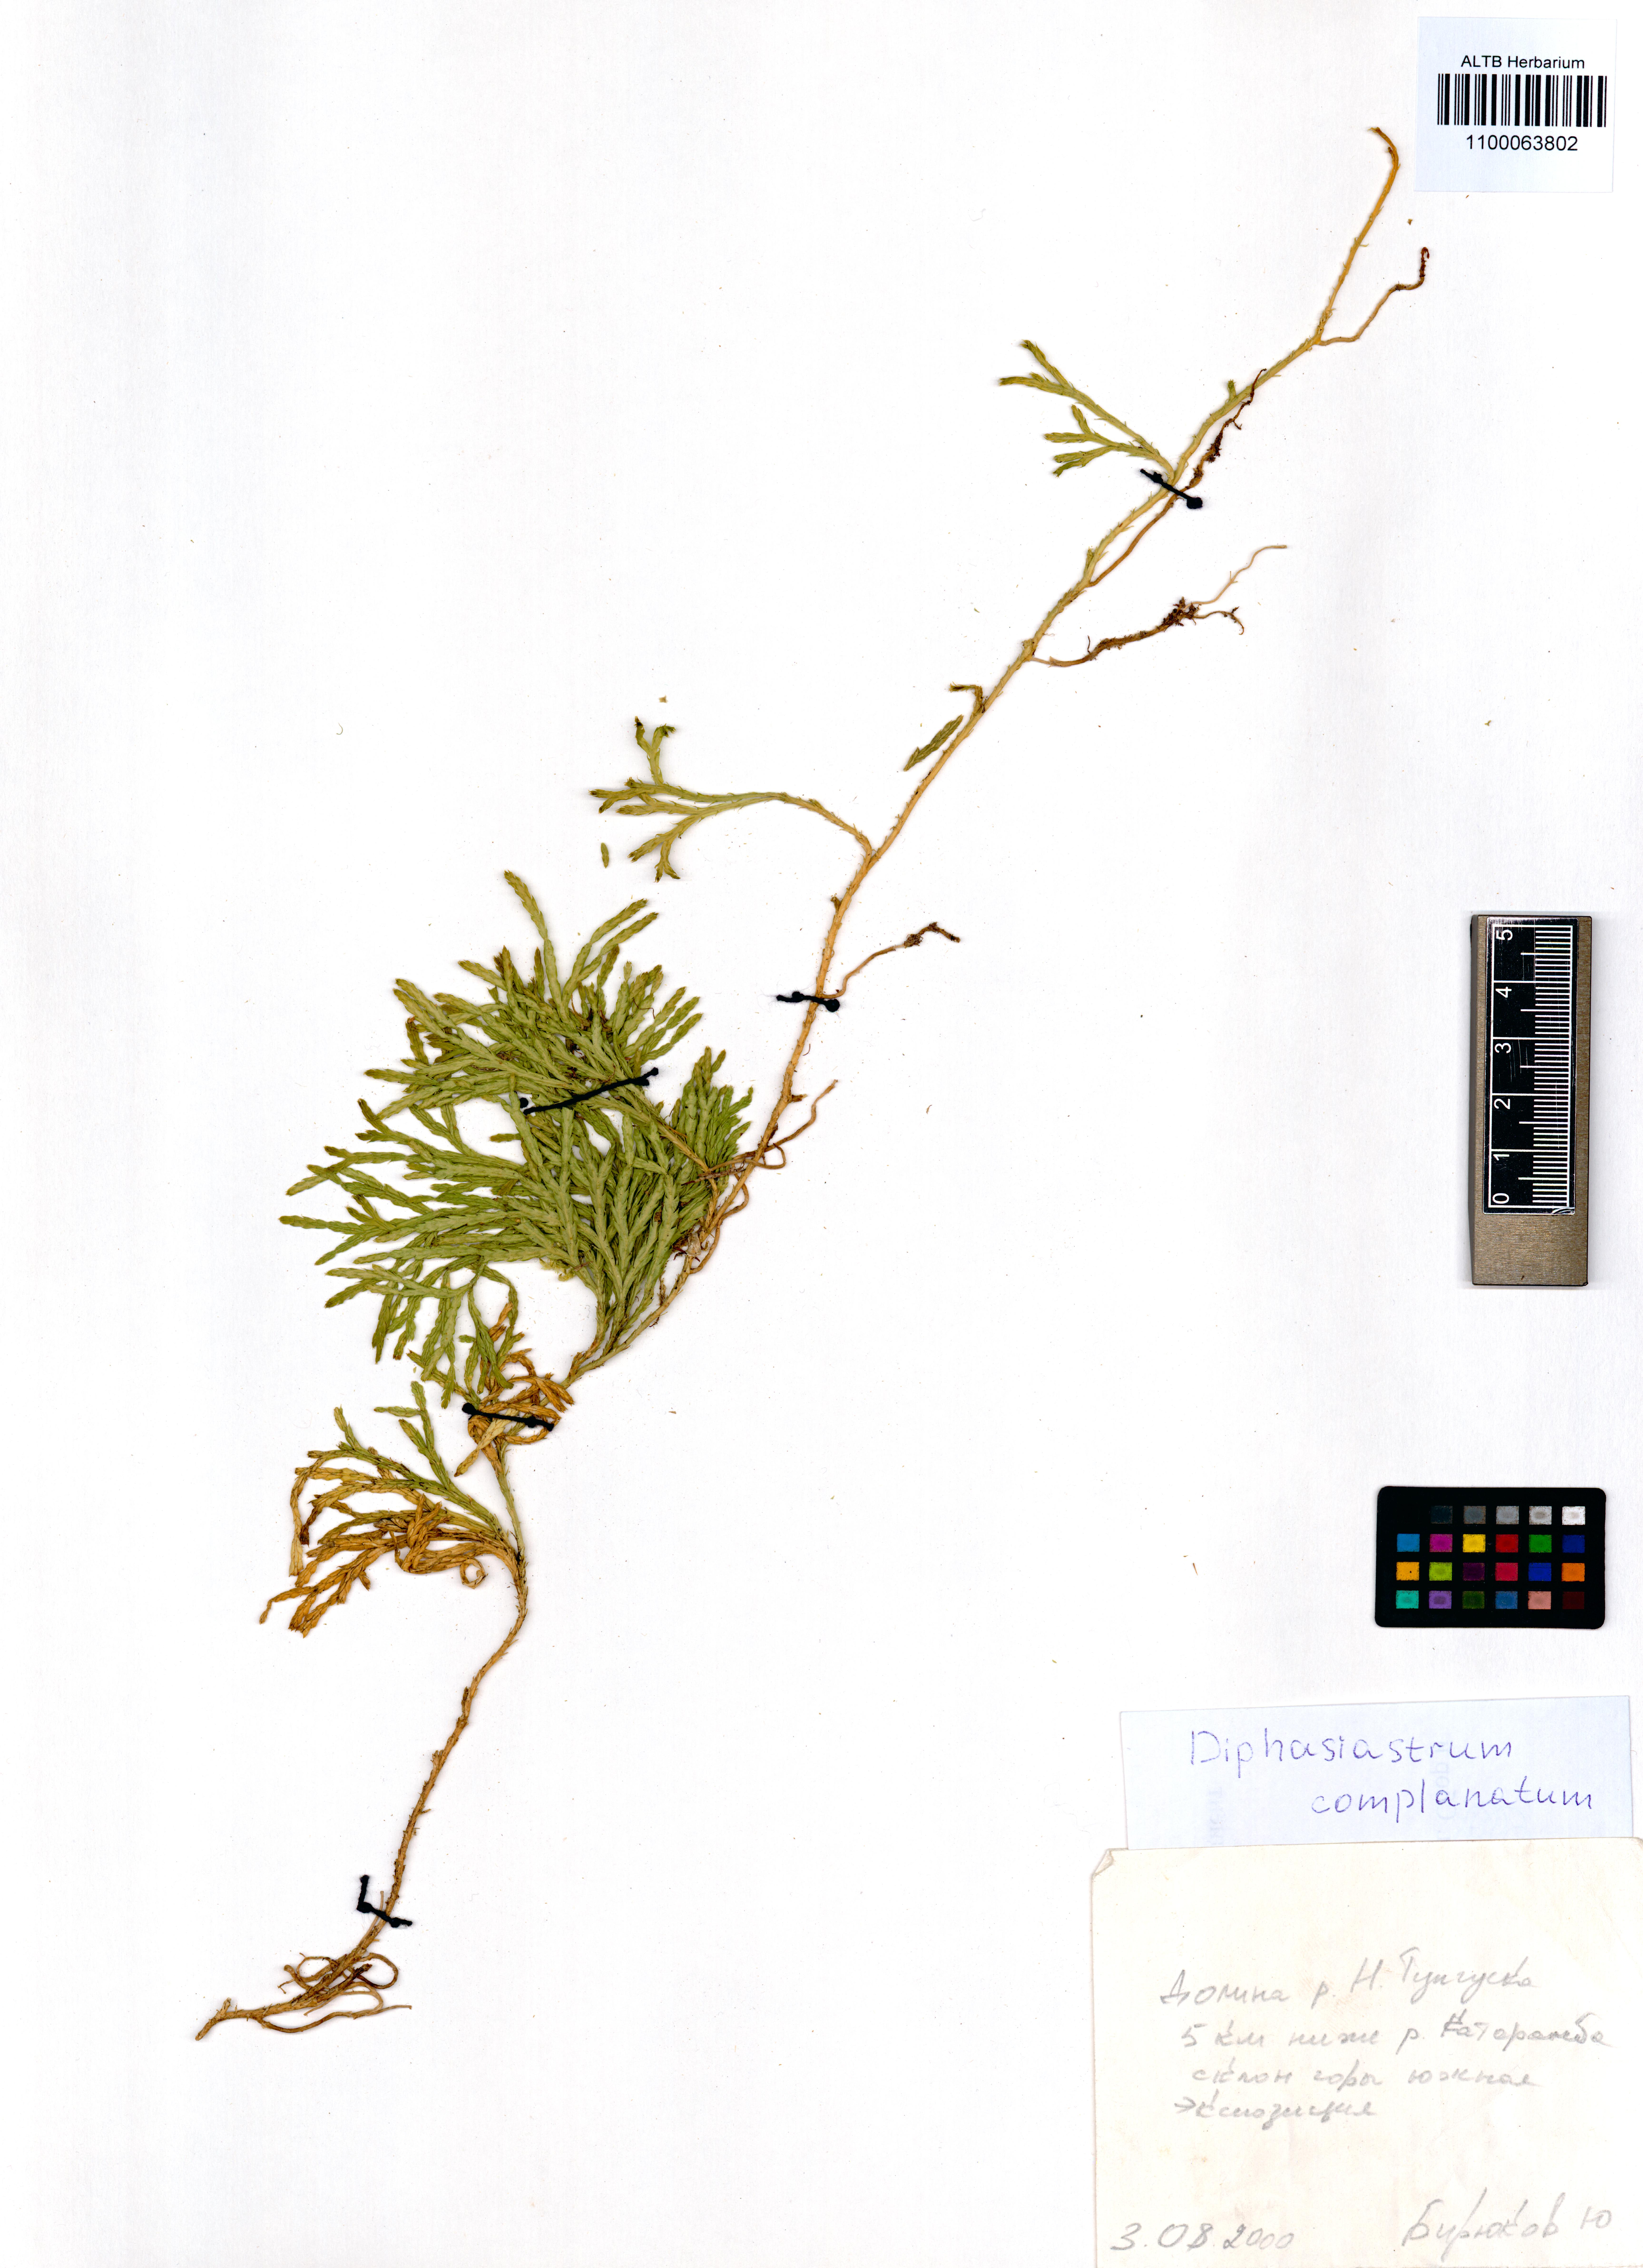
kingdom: Plantae
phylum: Tracheophyta
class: Lycopodiopsida
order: Lycopodiales
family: Lycopodiaceae
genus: Diphasiastrum
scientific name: Diphasiastrum complanatum
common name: Northern running-pine
